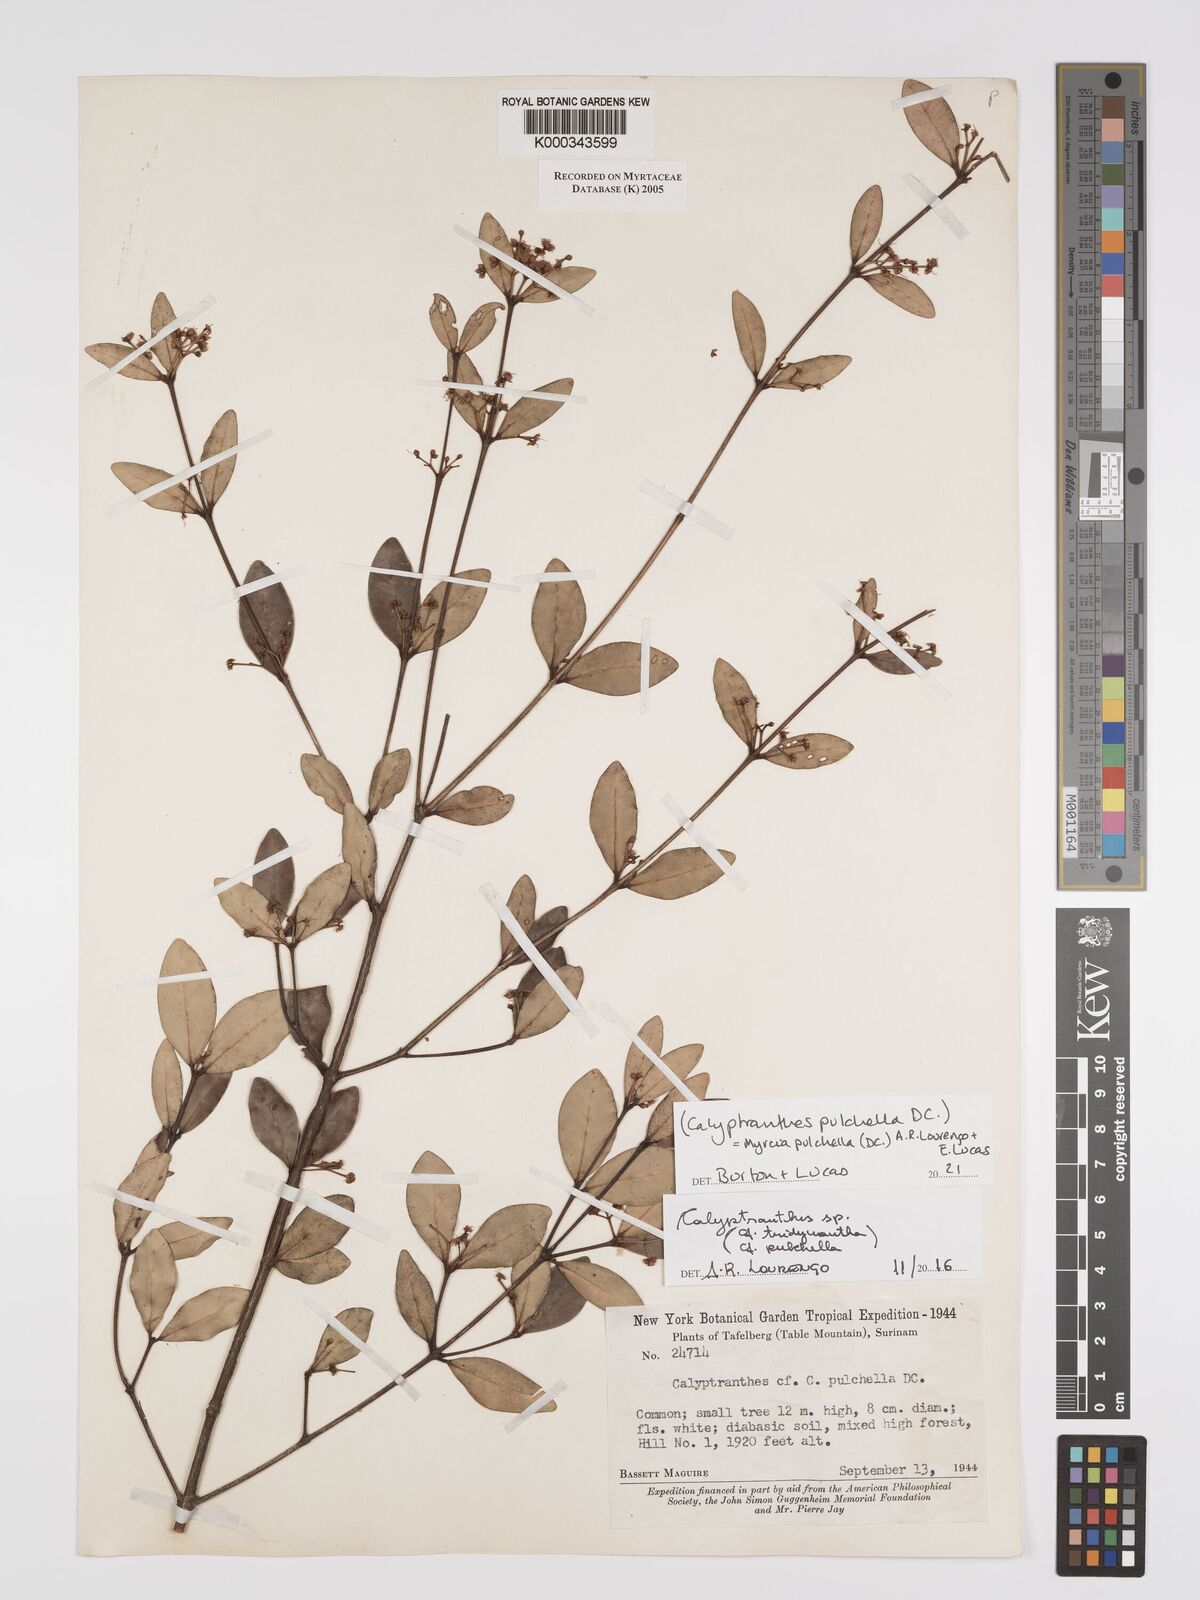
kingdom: Plantae
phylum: Tracheophyta
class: Magnoliopsida
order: Myrtales
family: Myrtaceae
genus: Myrcia
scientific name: Myrcia pulchella
